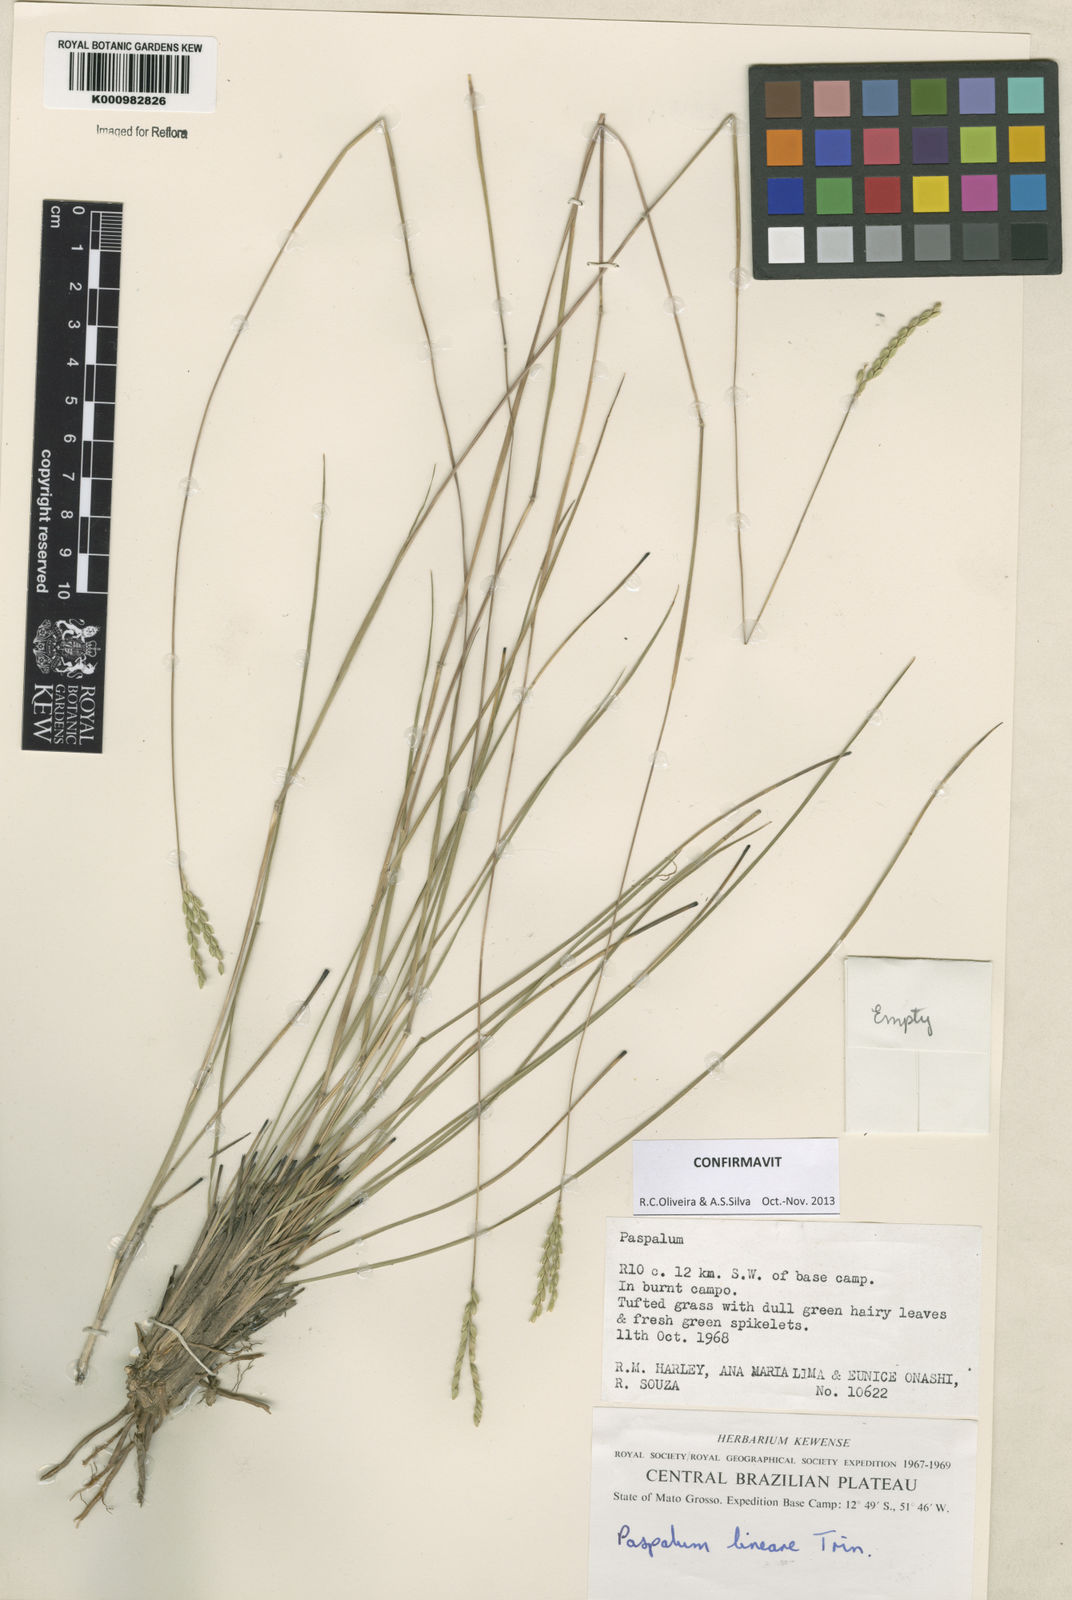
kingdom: Plantae
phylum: Tracheophyta
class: Liliopsida
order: Poales
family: Poaceae
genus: Paspalum
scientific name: Paspalum lineare
